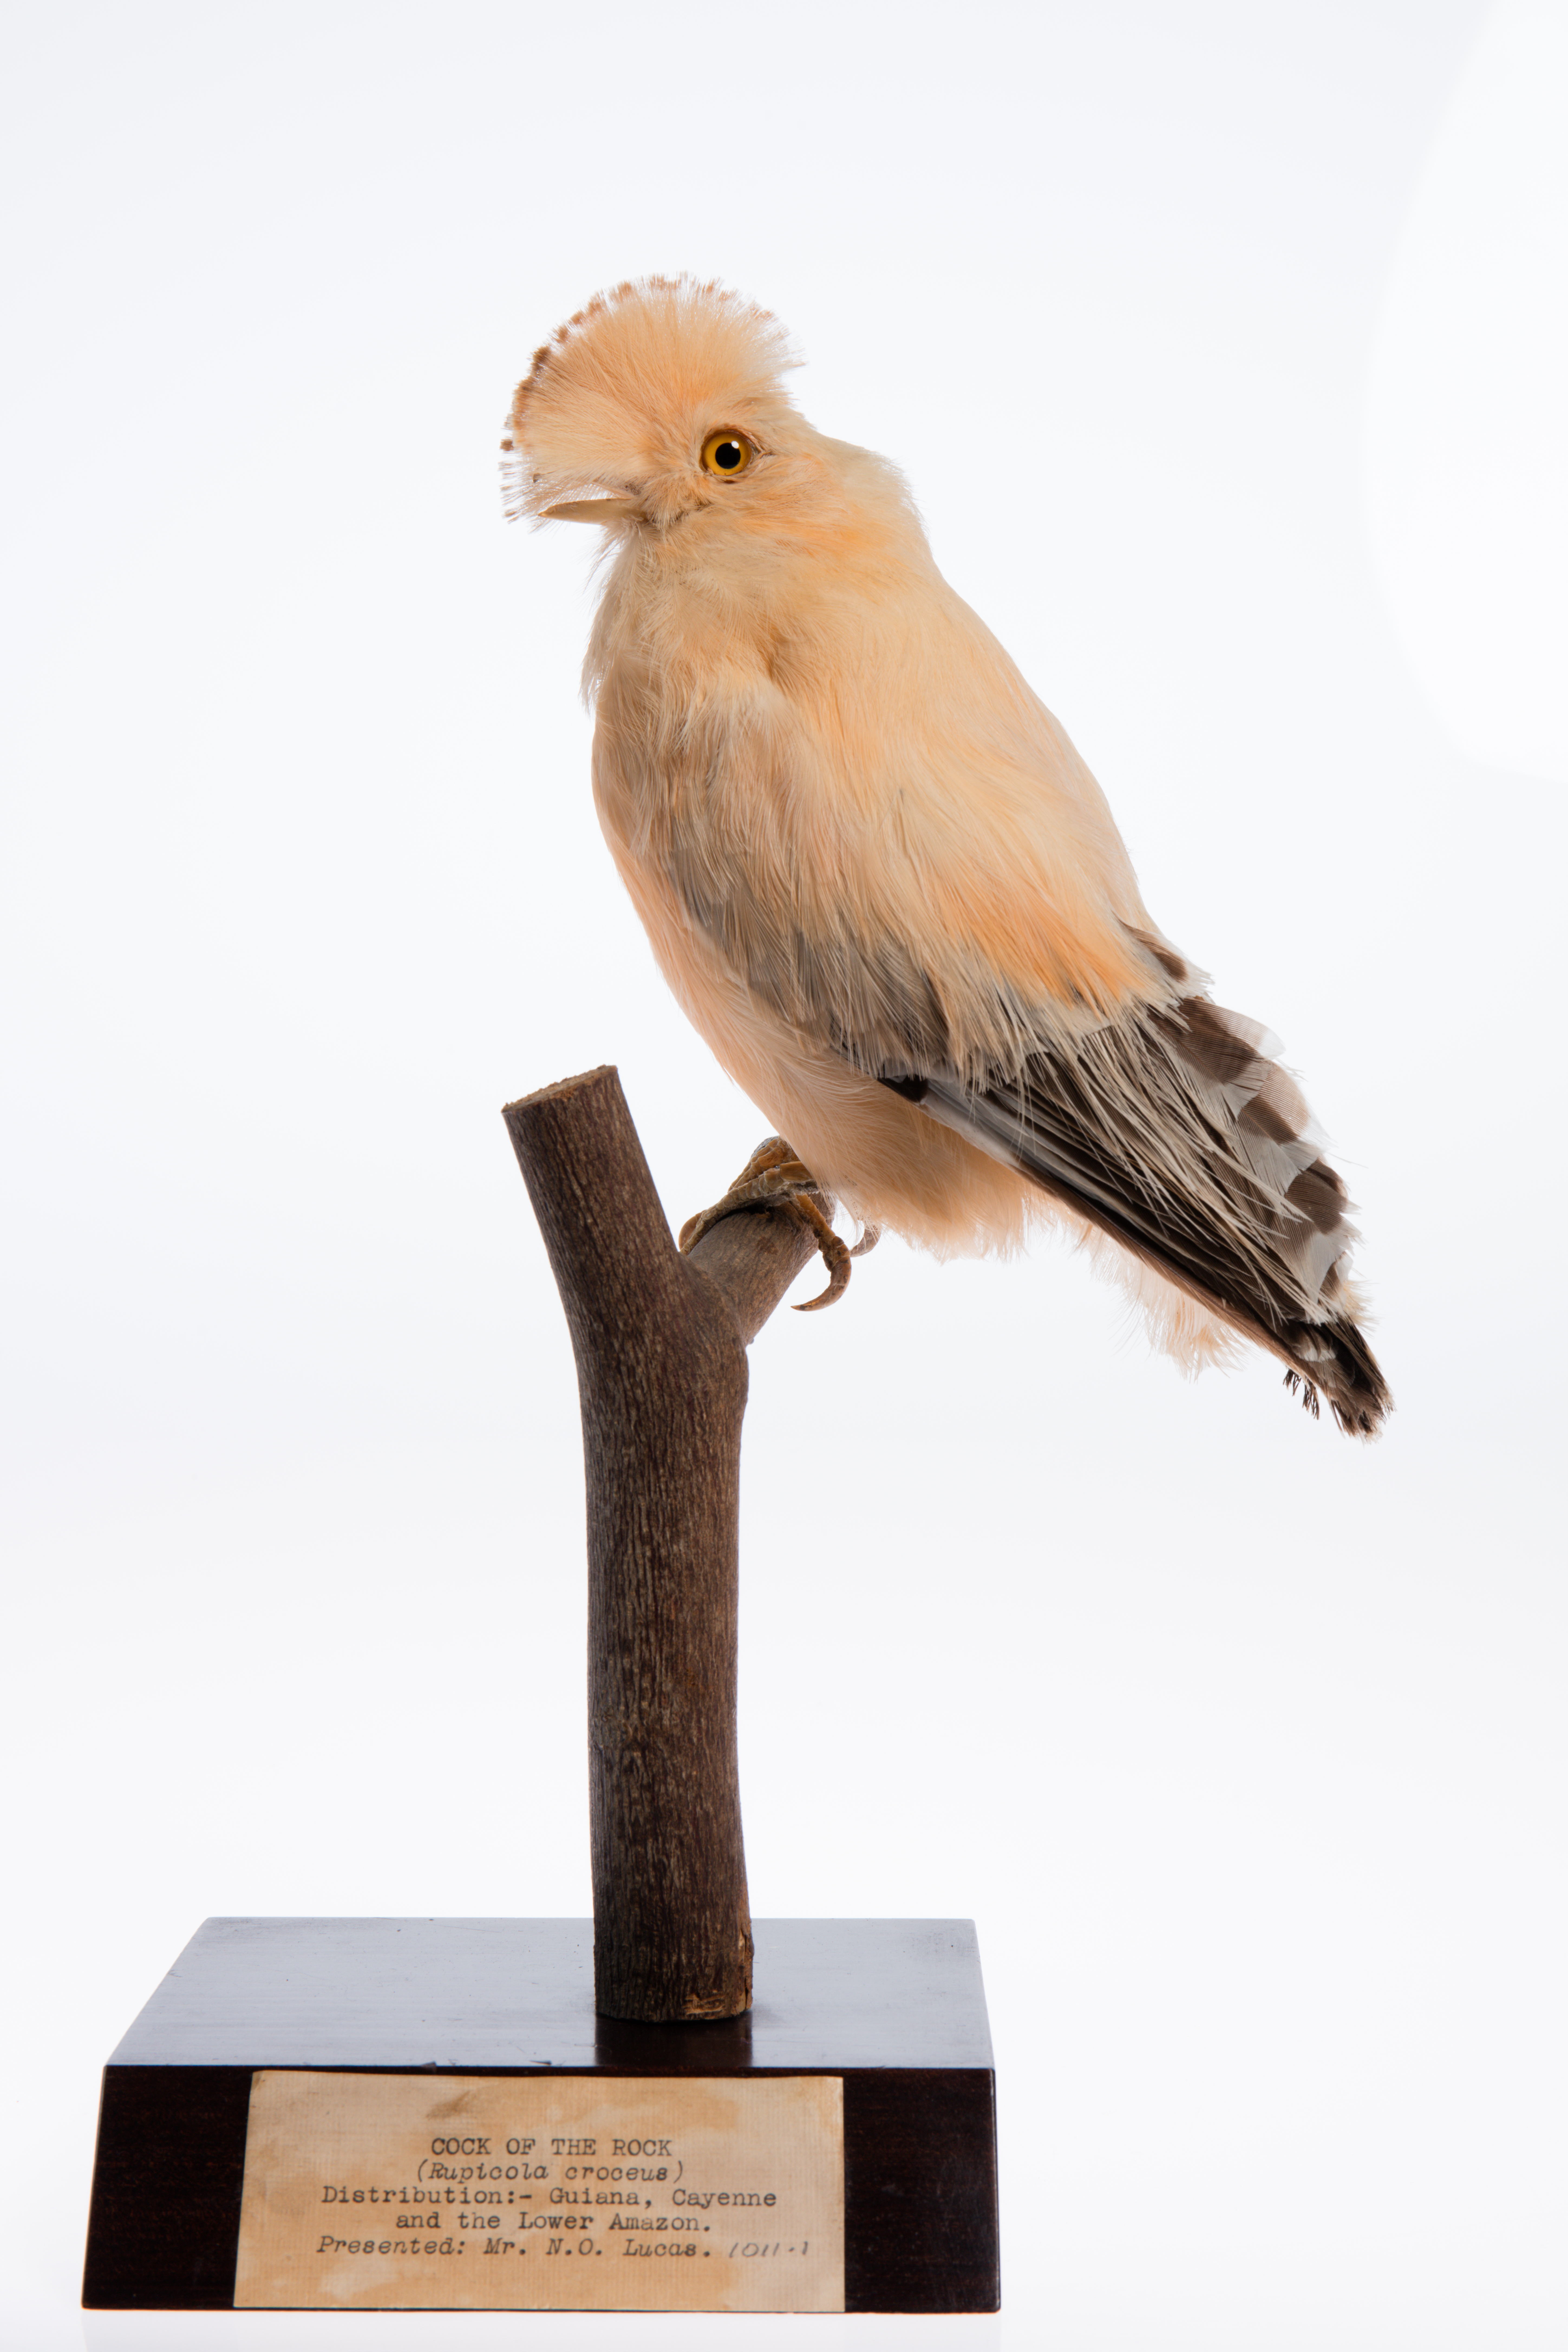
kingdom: Animalia
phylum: Chordata
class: Aves
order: Passeriformes
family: Cotingidae
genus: Rupicola
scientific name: Rupicola
